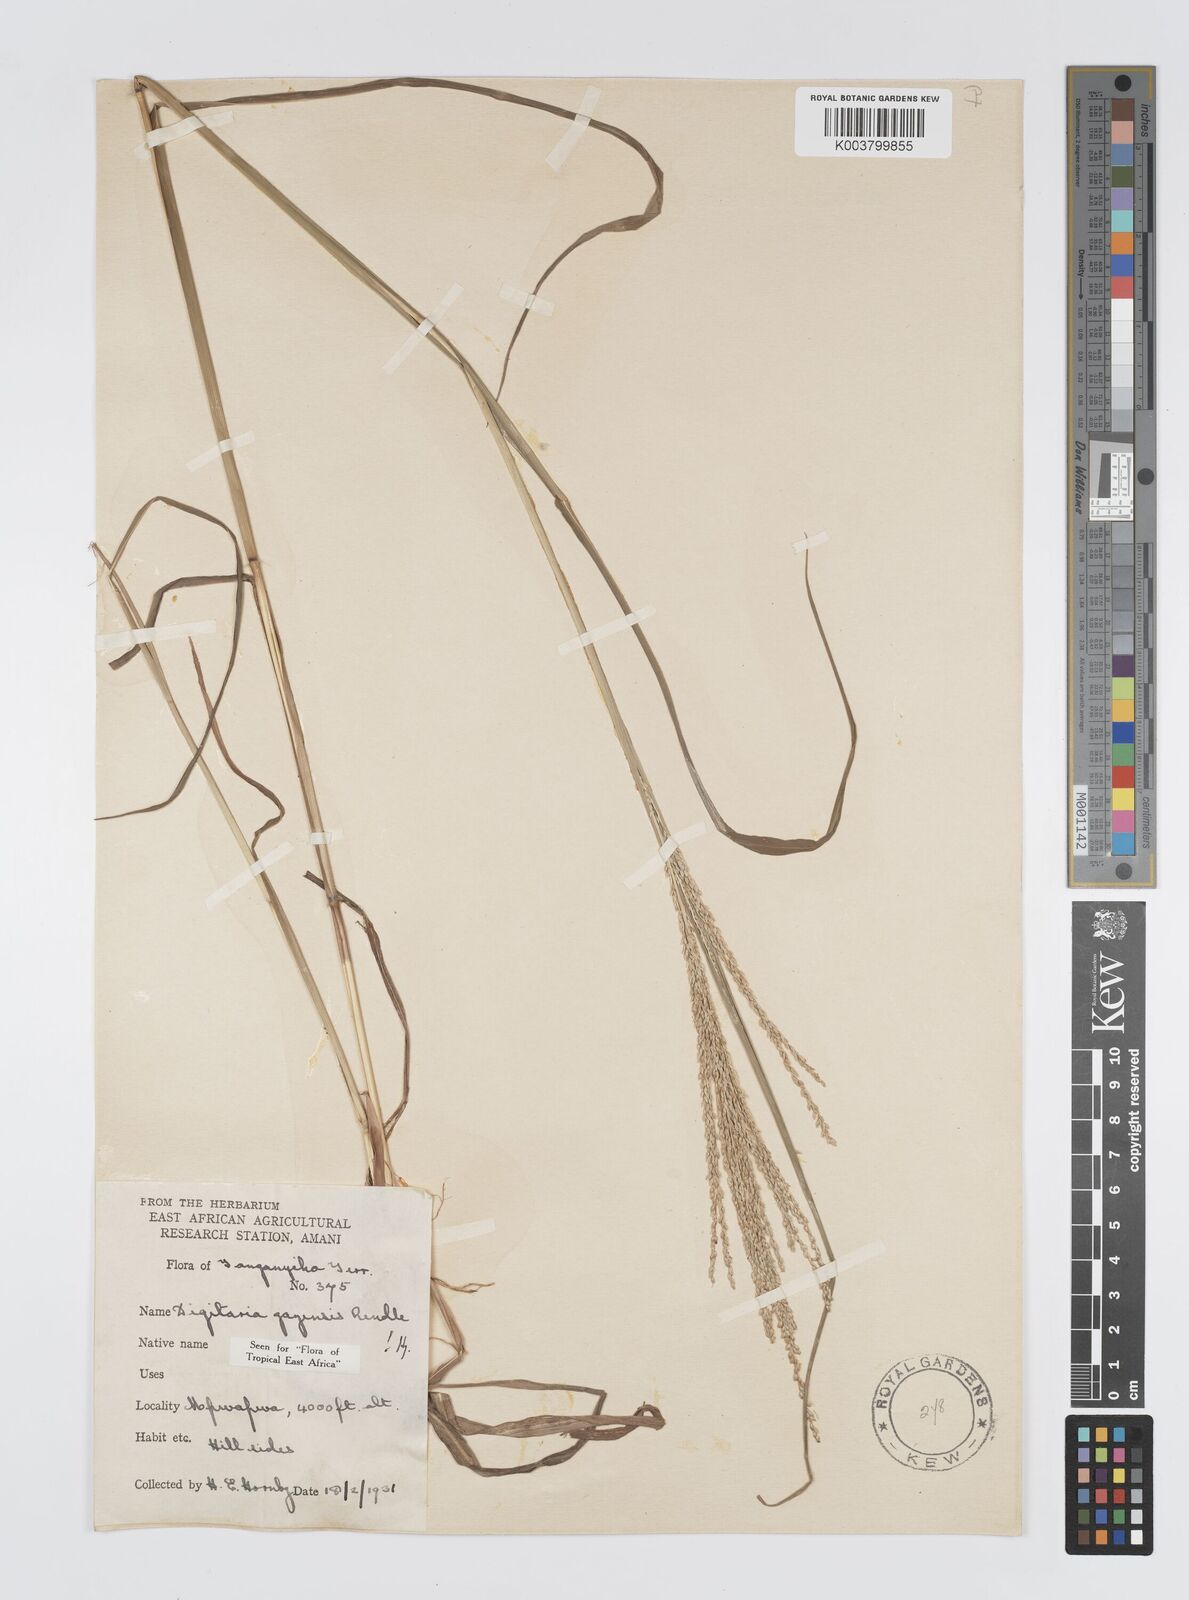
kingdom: Plantae
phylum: Tracheophyta
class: Liliopsida
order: Poales
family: Poaceae
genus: Digitaria
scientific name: Digitaria gazensis
